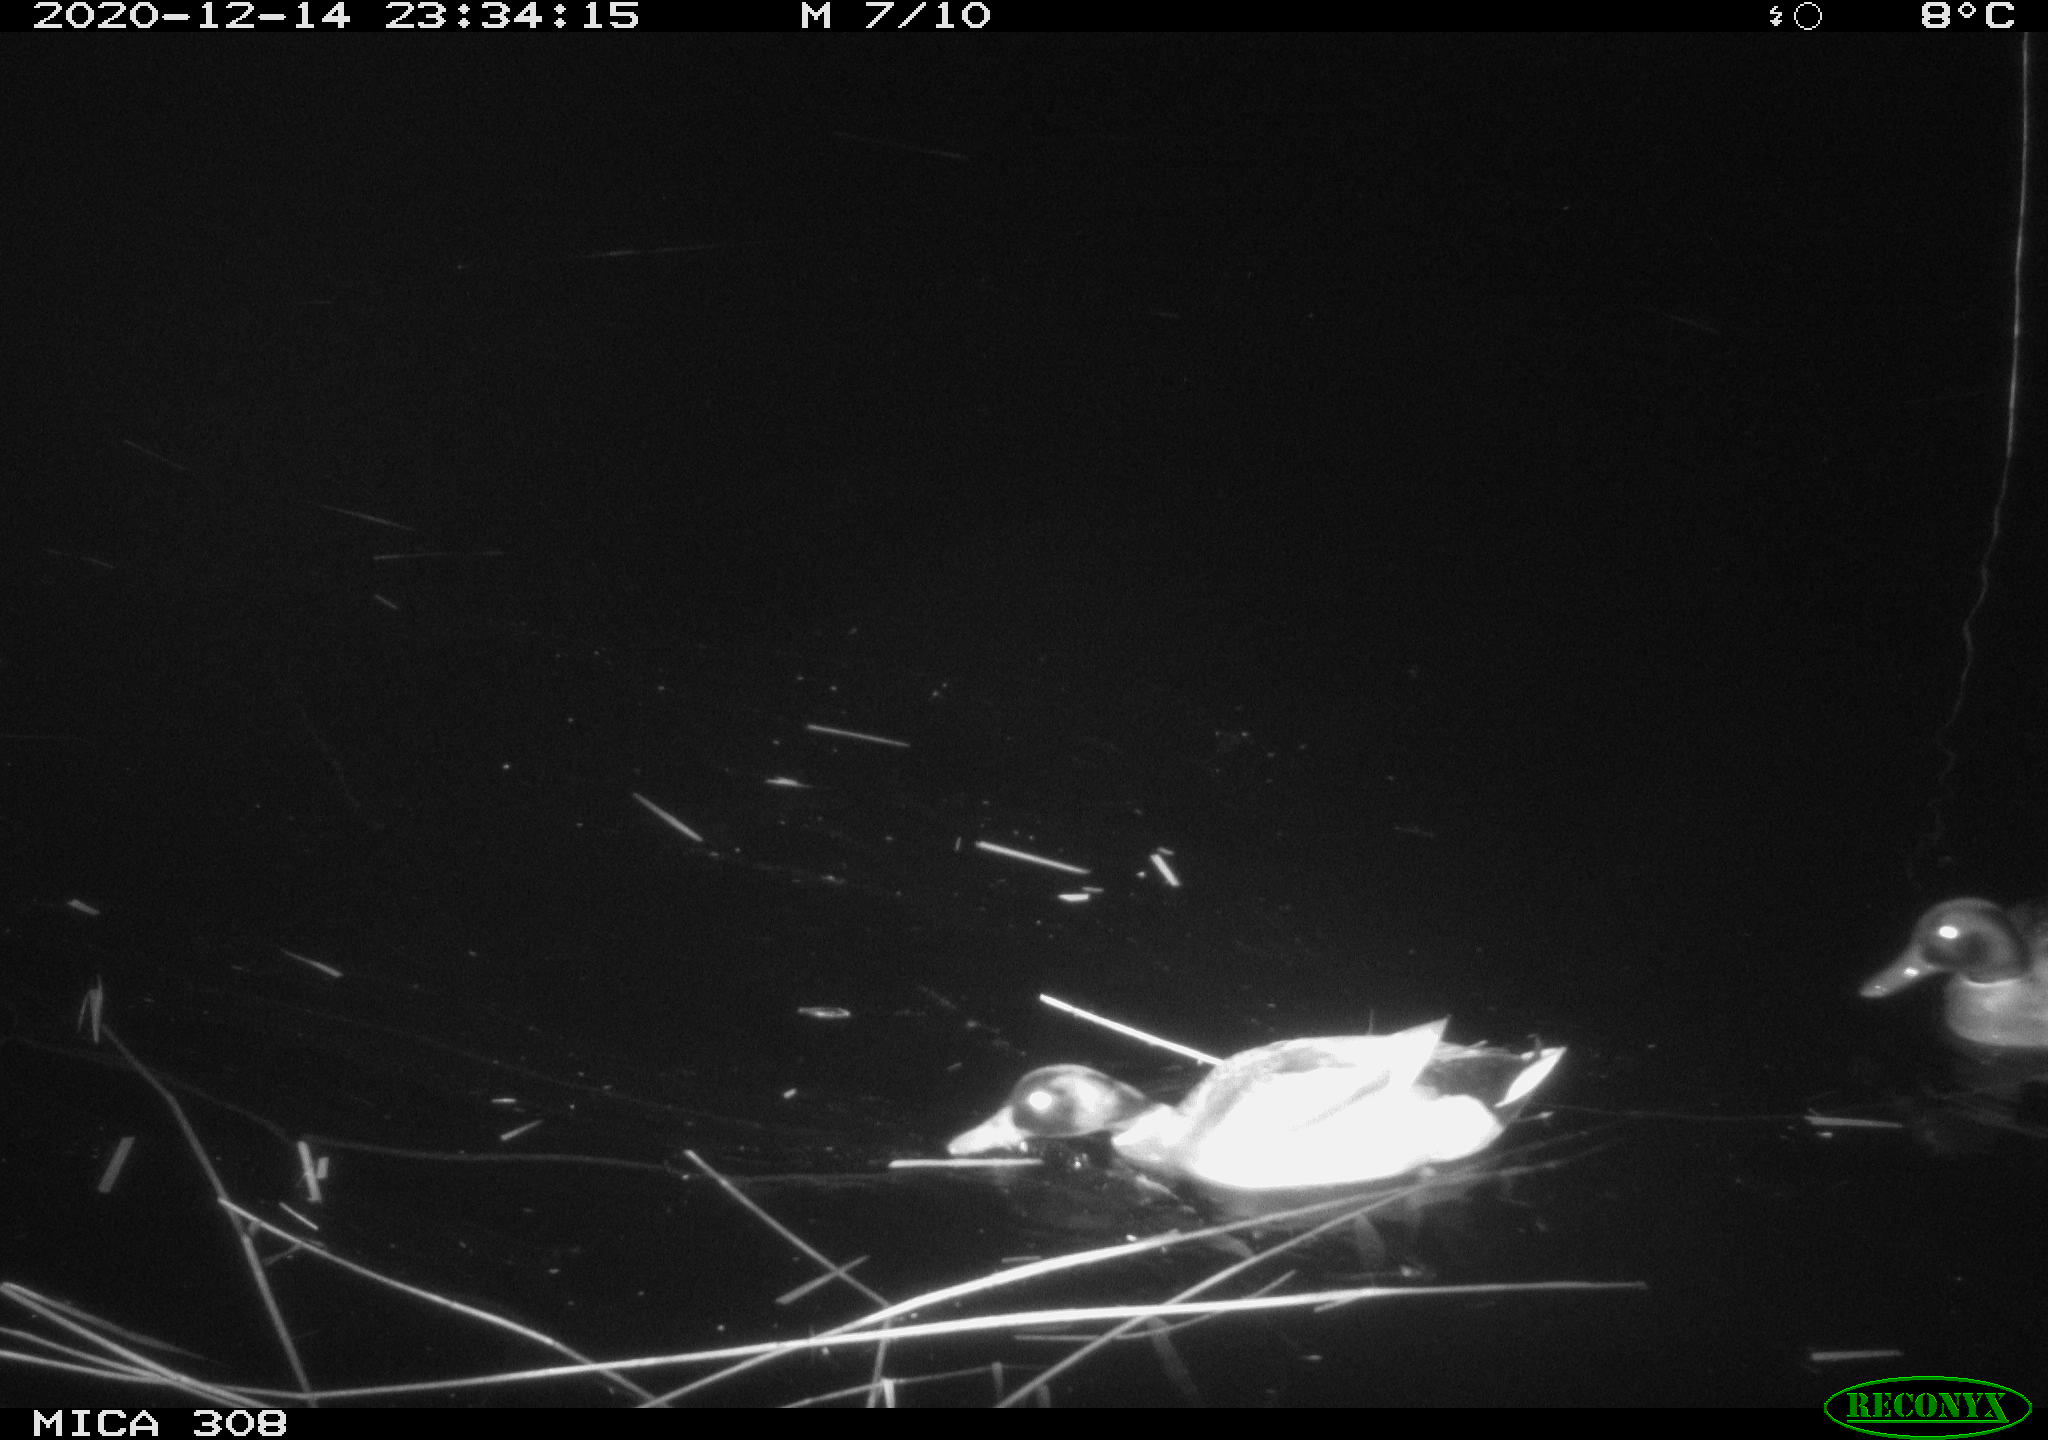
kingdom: Animalia
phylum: Chordata
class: Aves
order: Anseriformes
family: Anatidae
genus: Anas
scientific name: Anas platyrhynchos
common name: Mallard
